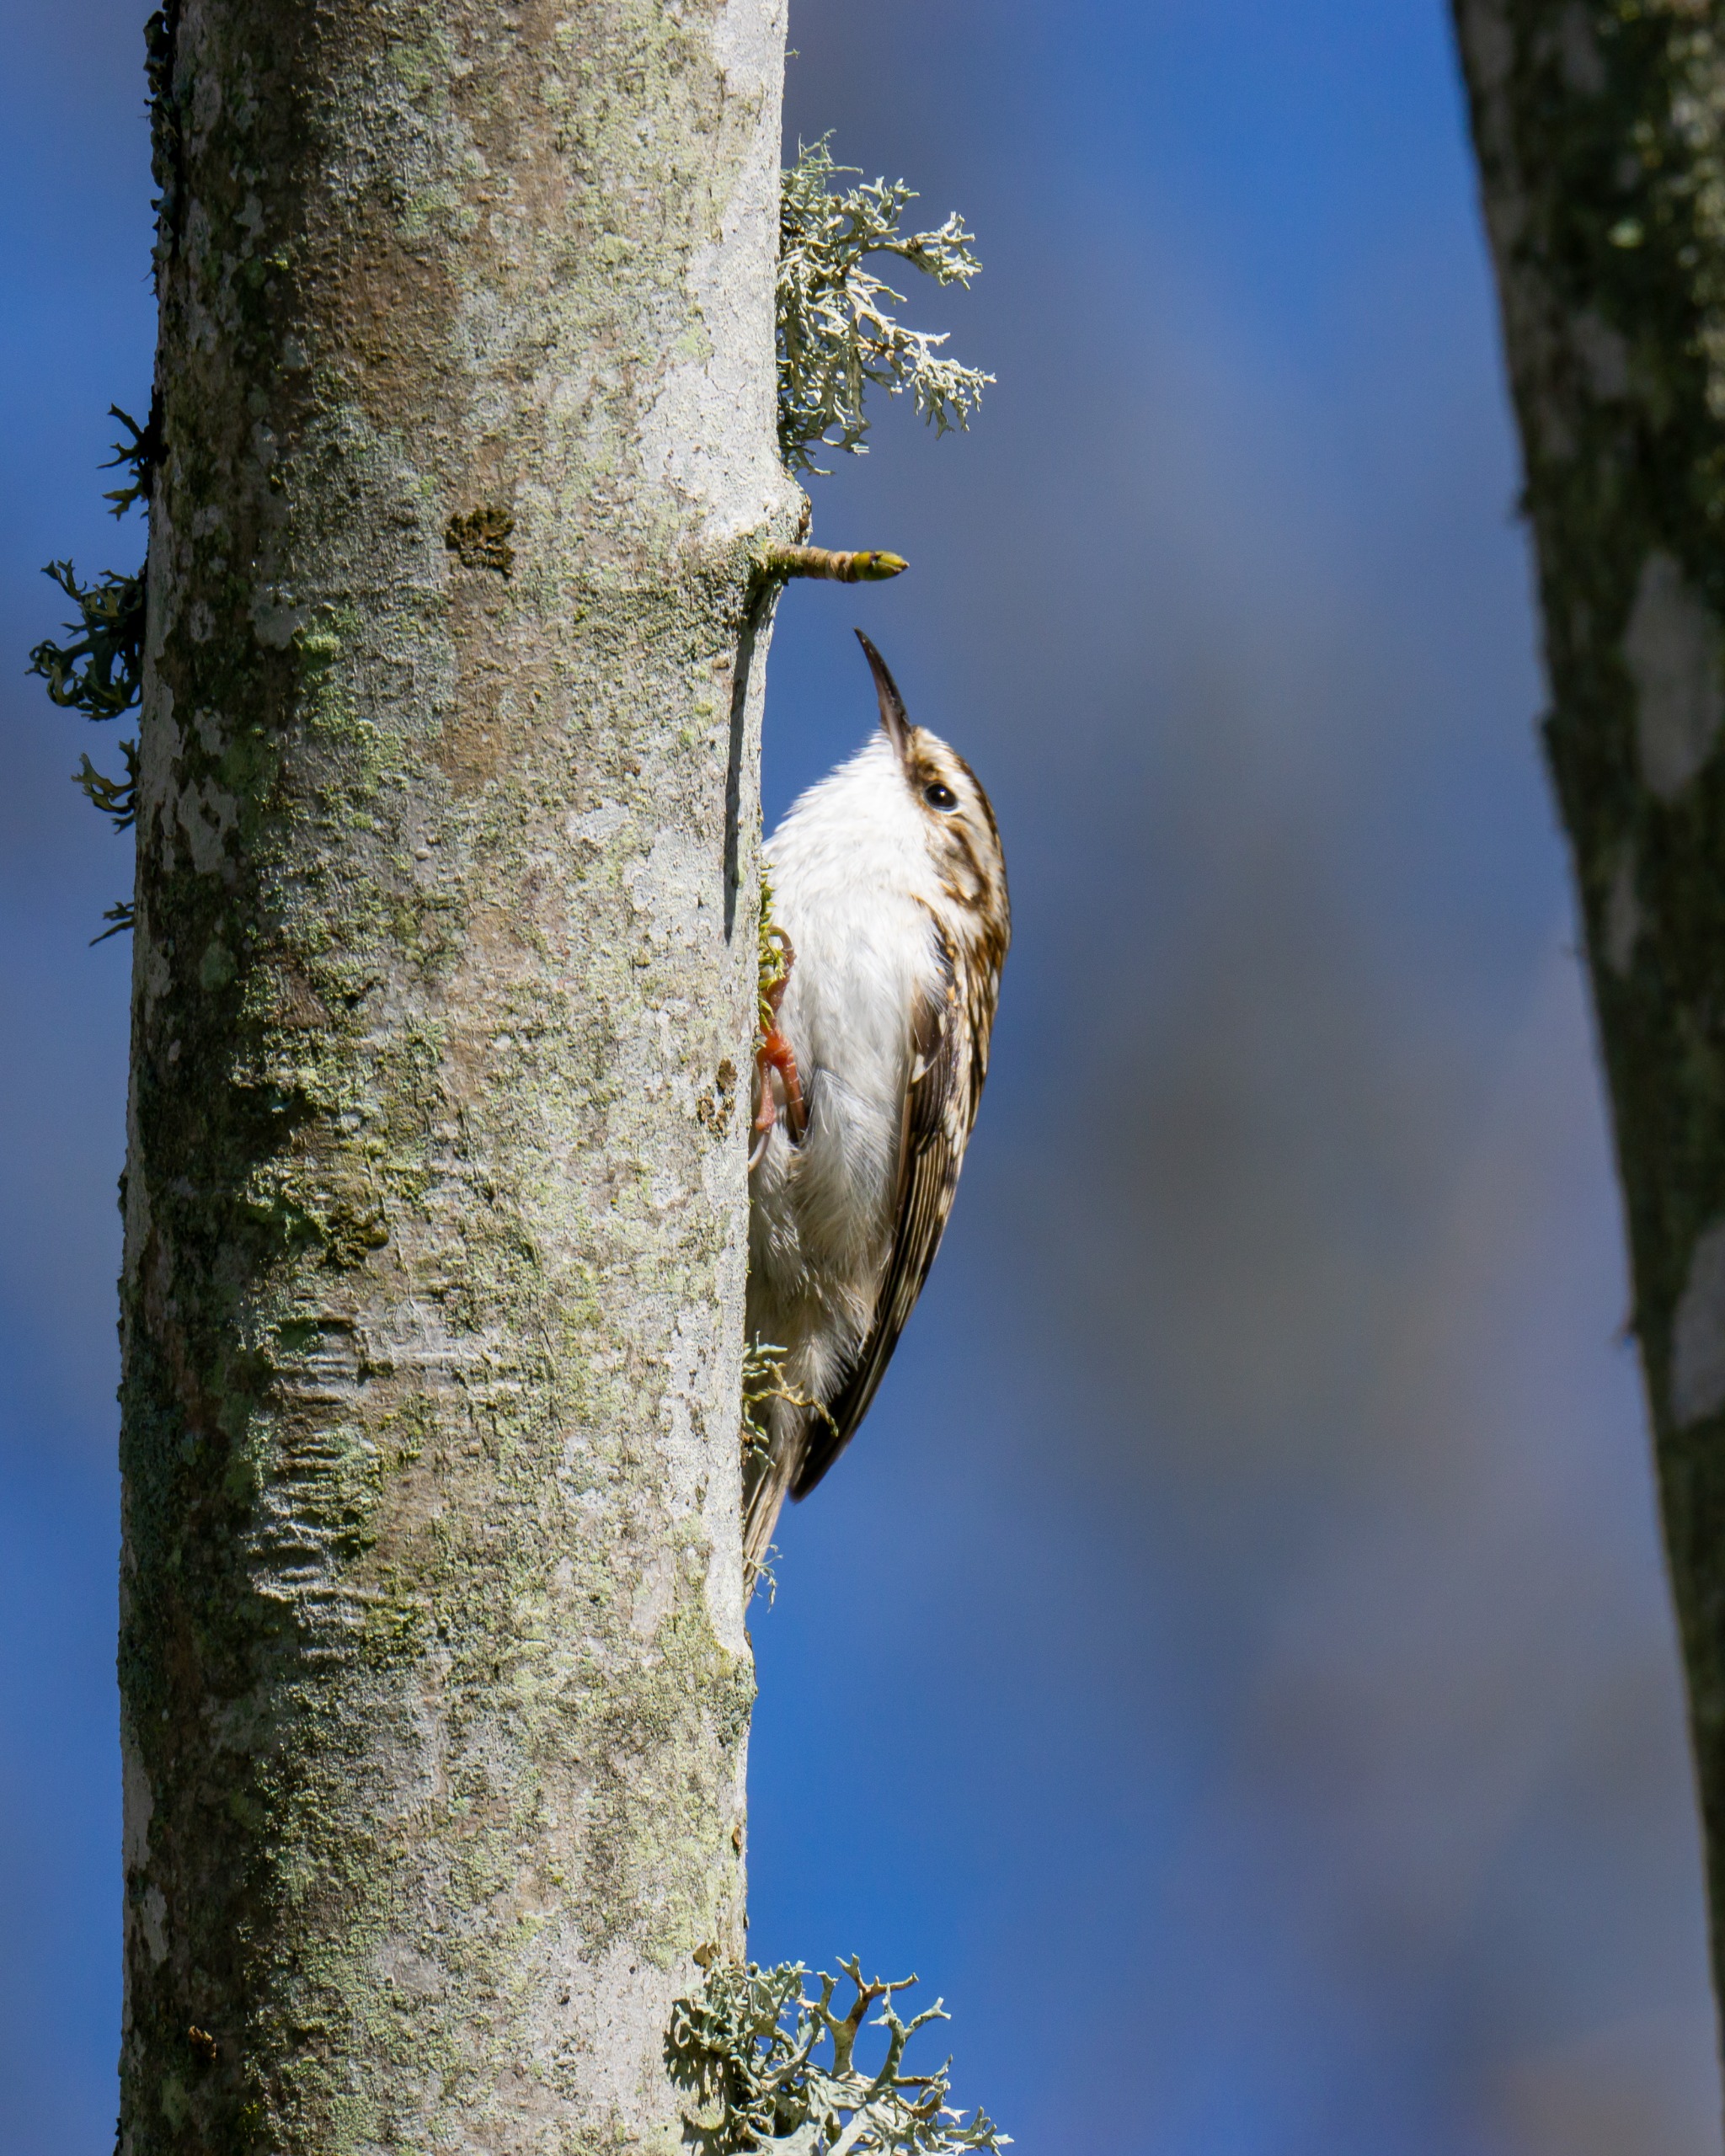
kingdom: Animalia
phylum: Chordata
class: Aves
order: Passeriformes
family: Certhiidae
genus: Certhia
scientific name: Certhia familiaris
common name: Træløber
